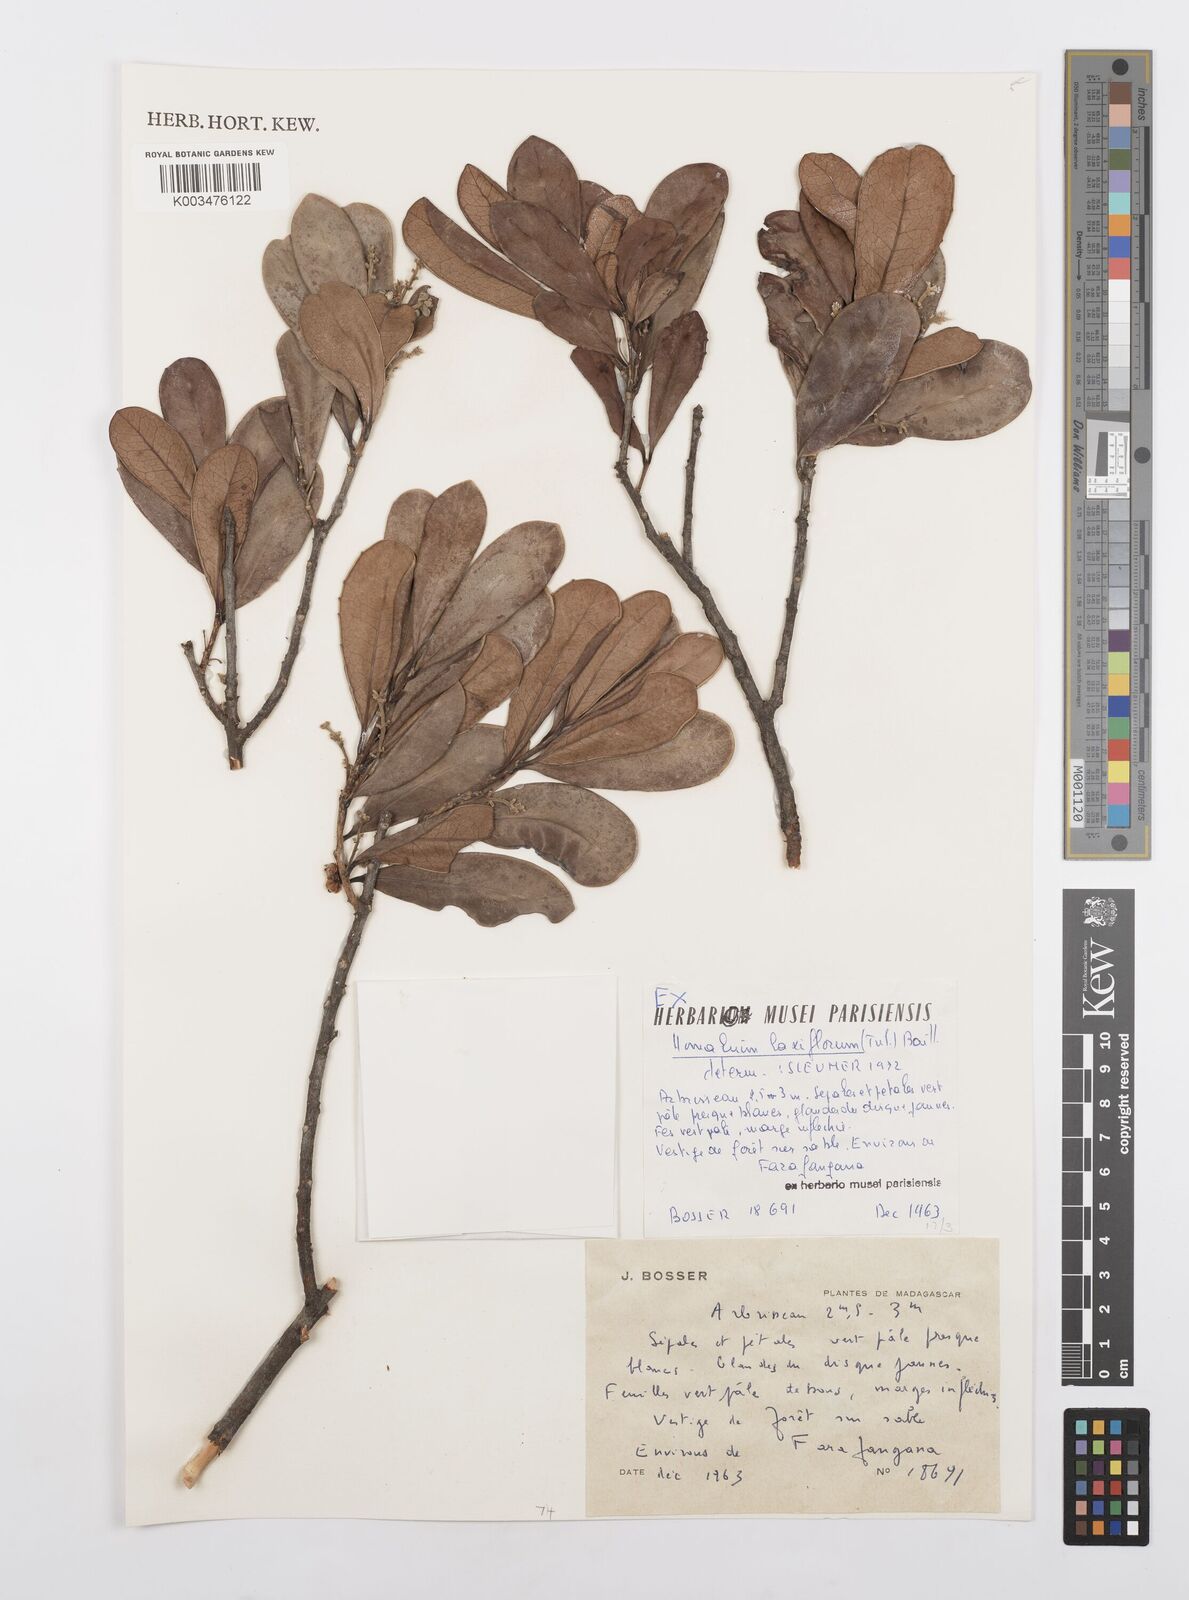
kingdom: Plantae
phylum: Tracheophyta
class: Magnoliopsida
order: Malpighiales
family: Salicaceae
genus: Homalium
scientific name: Homalium laxiflorum
